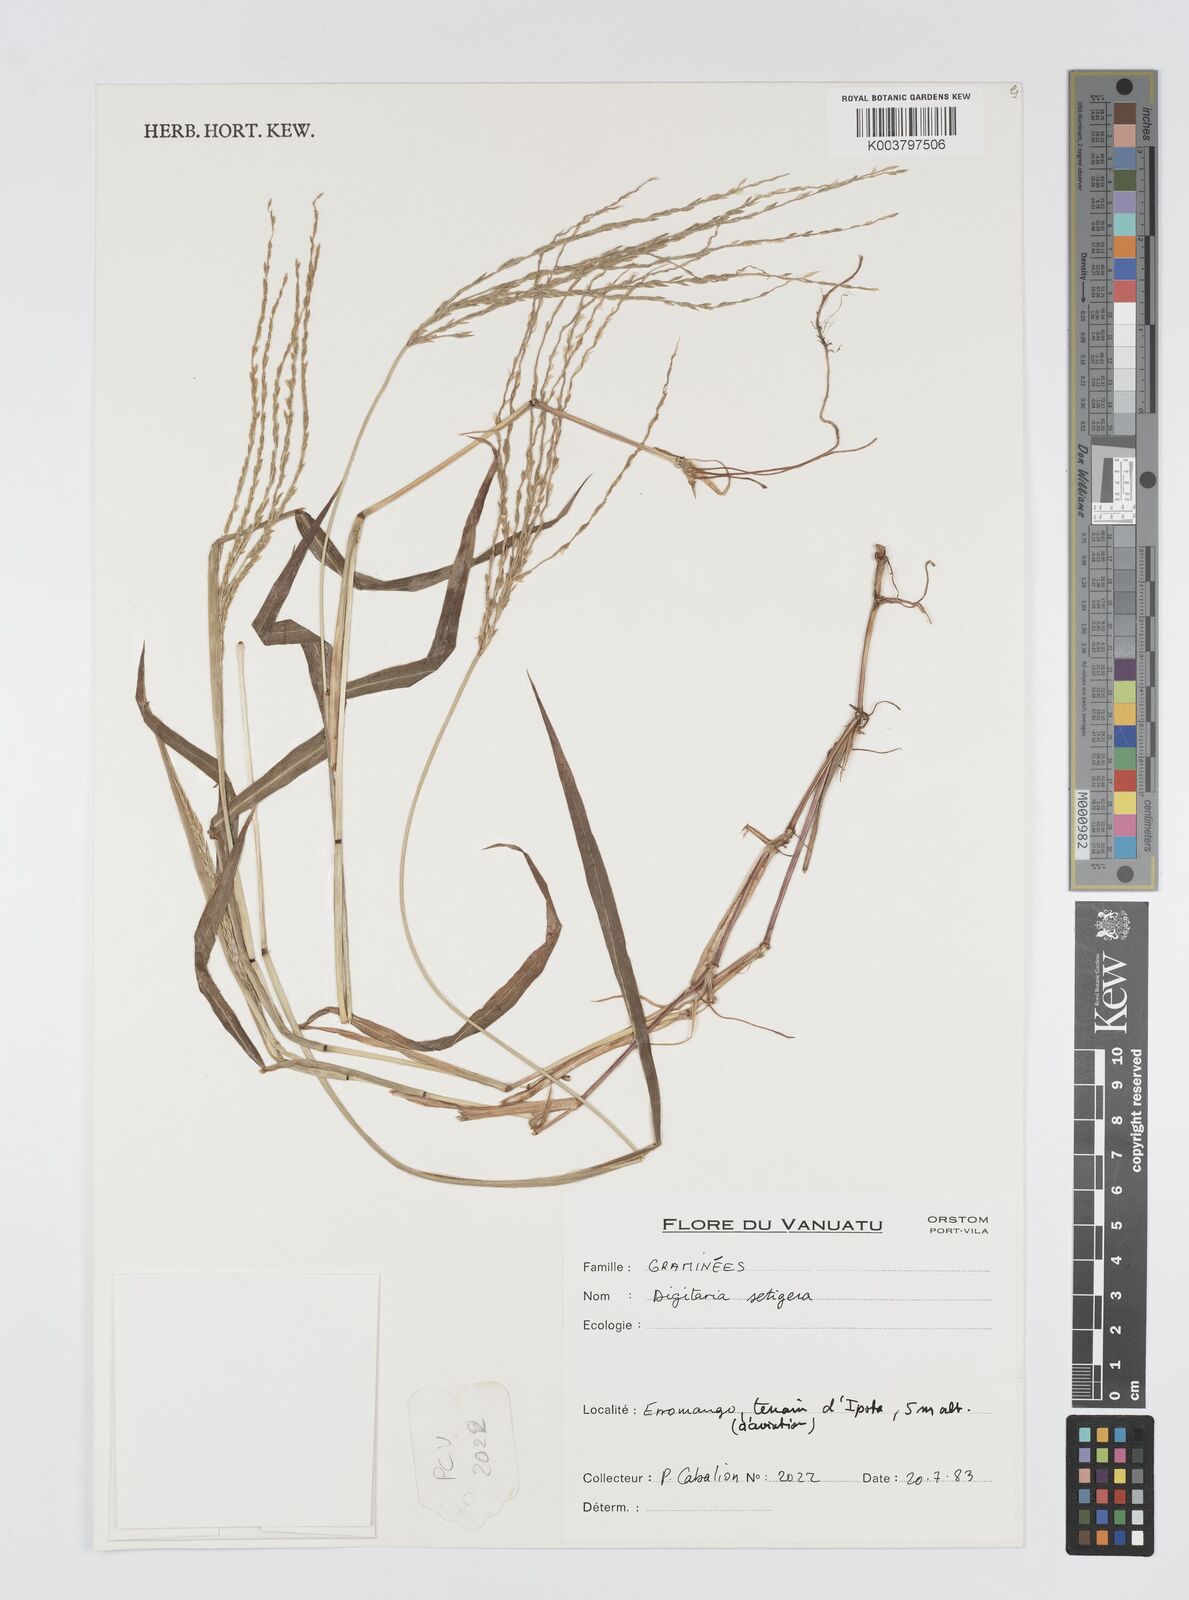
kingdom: Plantae
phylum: Tracheophyta
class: Liliopsida
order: Poales
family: Poaceae
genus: Digitaria
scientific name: Digitaria setigera
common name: East indian crabgrass
